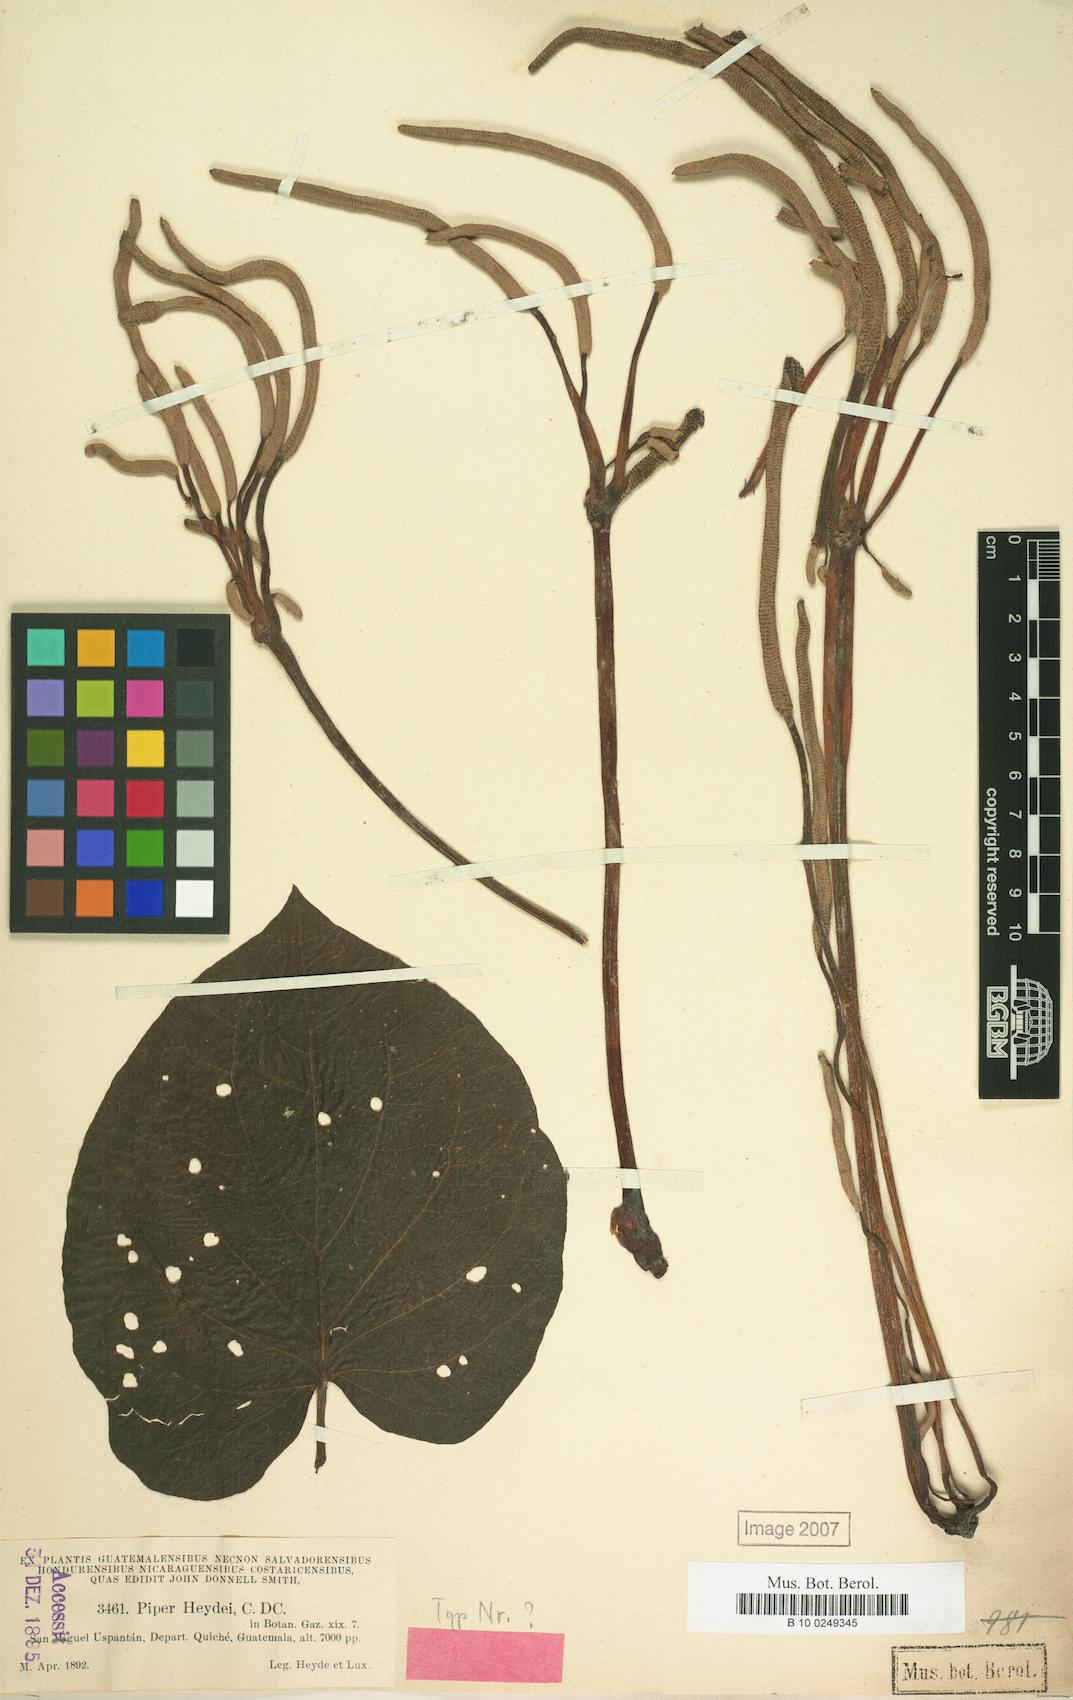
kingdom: Plantae
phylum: Tracheophyta
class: Magnoliopsida
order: Piperales
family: Piperaceae
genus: Piper
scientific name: Piper heydei
